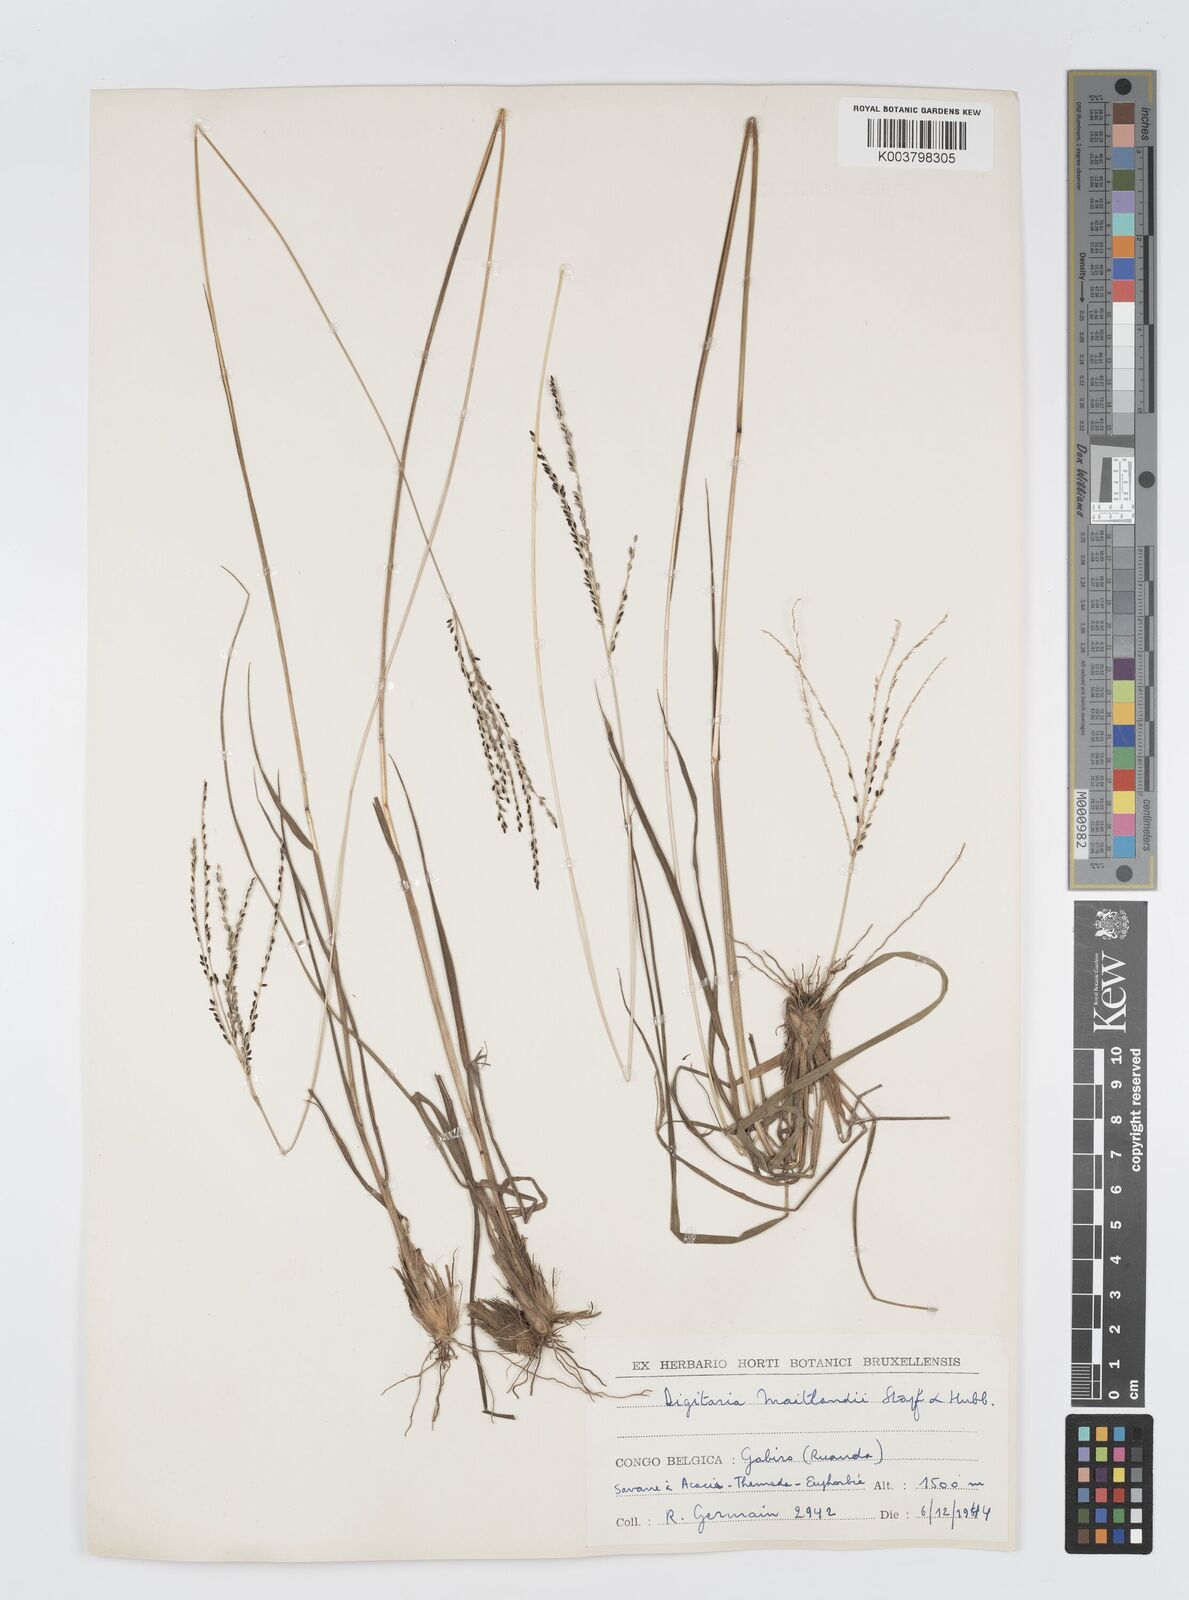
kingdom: Plantae
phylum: Tracheophyta
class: Liliopsida
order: Poales
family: Poaceae
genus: Digitaria
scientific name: Digitaria maitlandii
